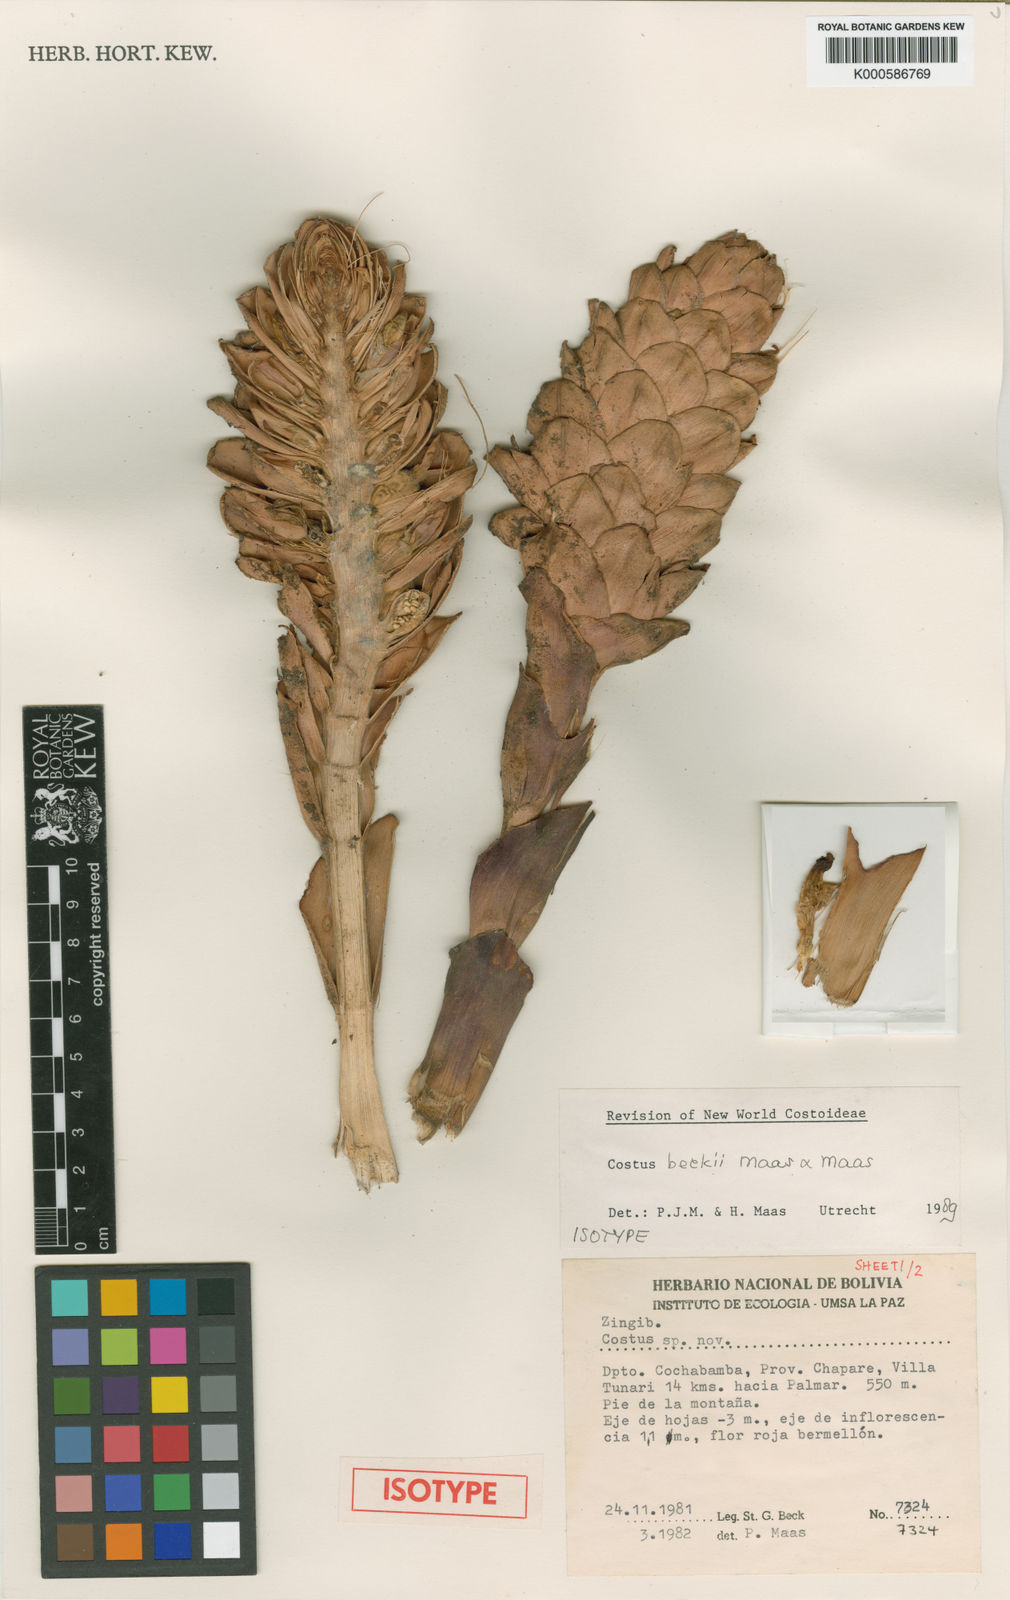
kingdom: Plantae
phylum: Tracheophyta
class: Liliopsida
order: Zingiberales
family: Costaceae
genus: Costus
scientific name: Costus beckii
